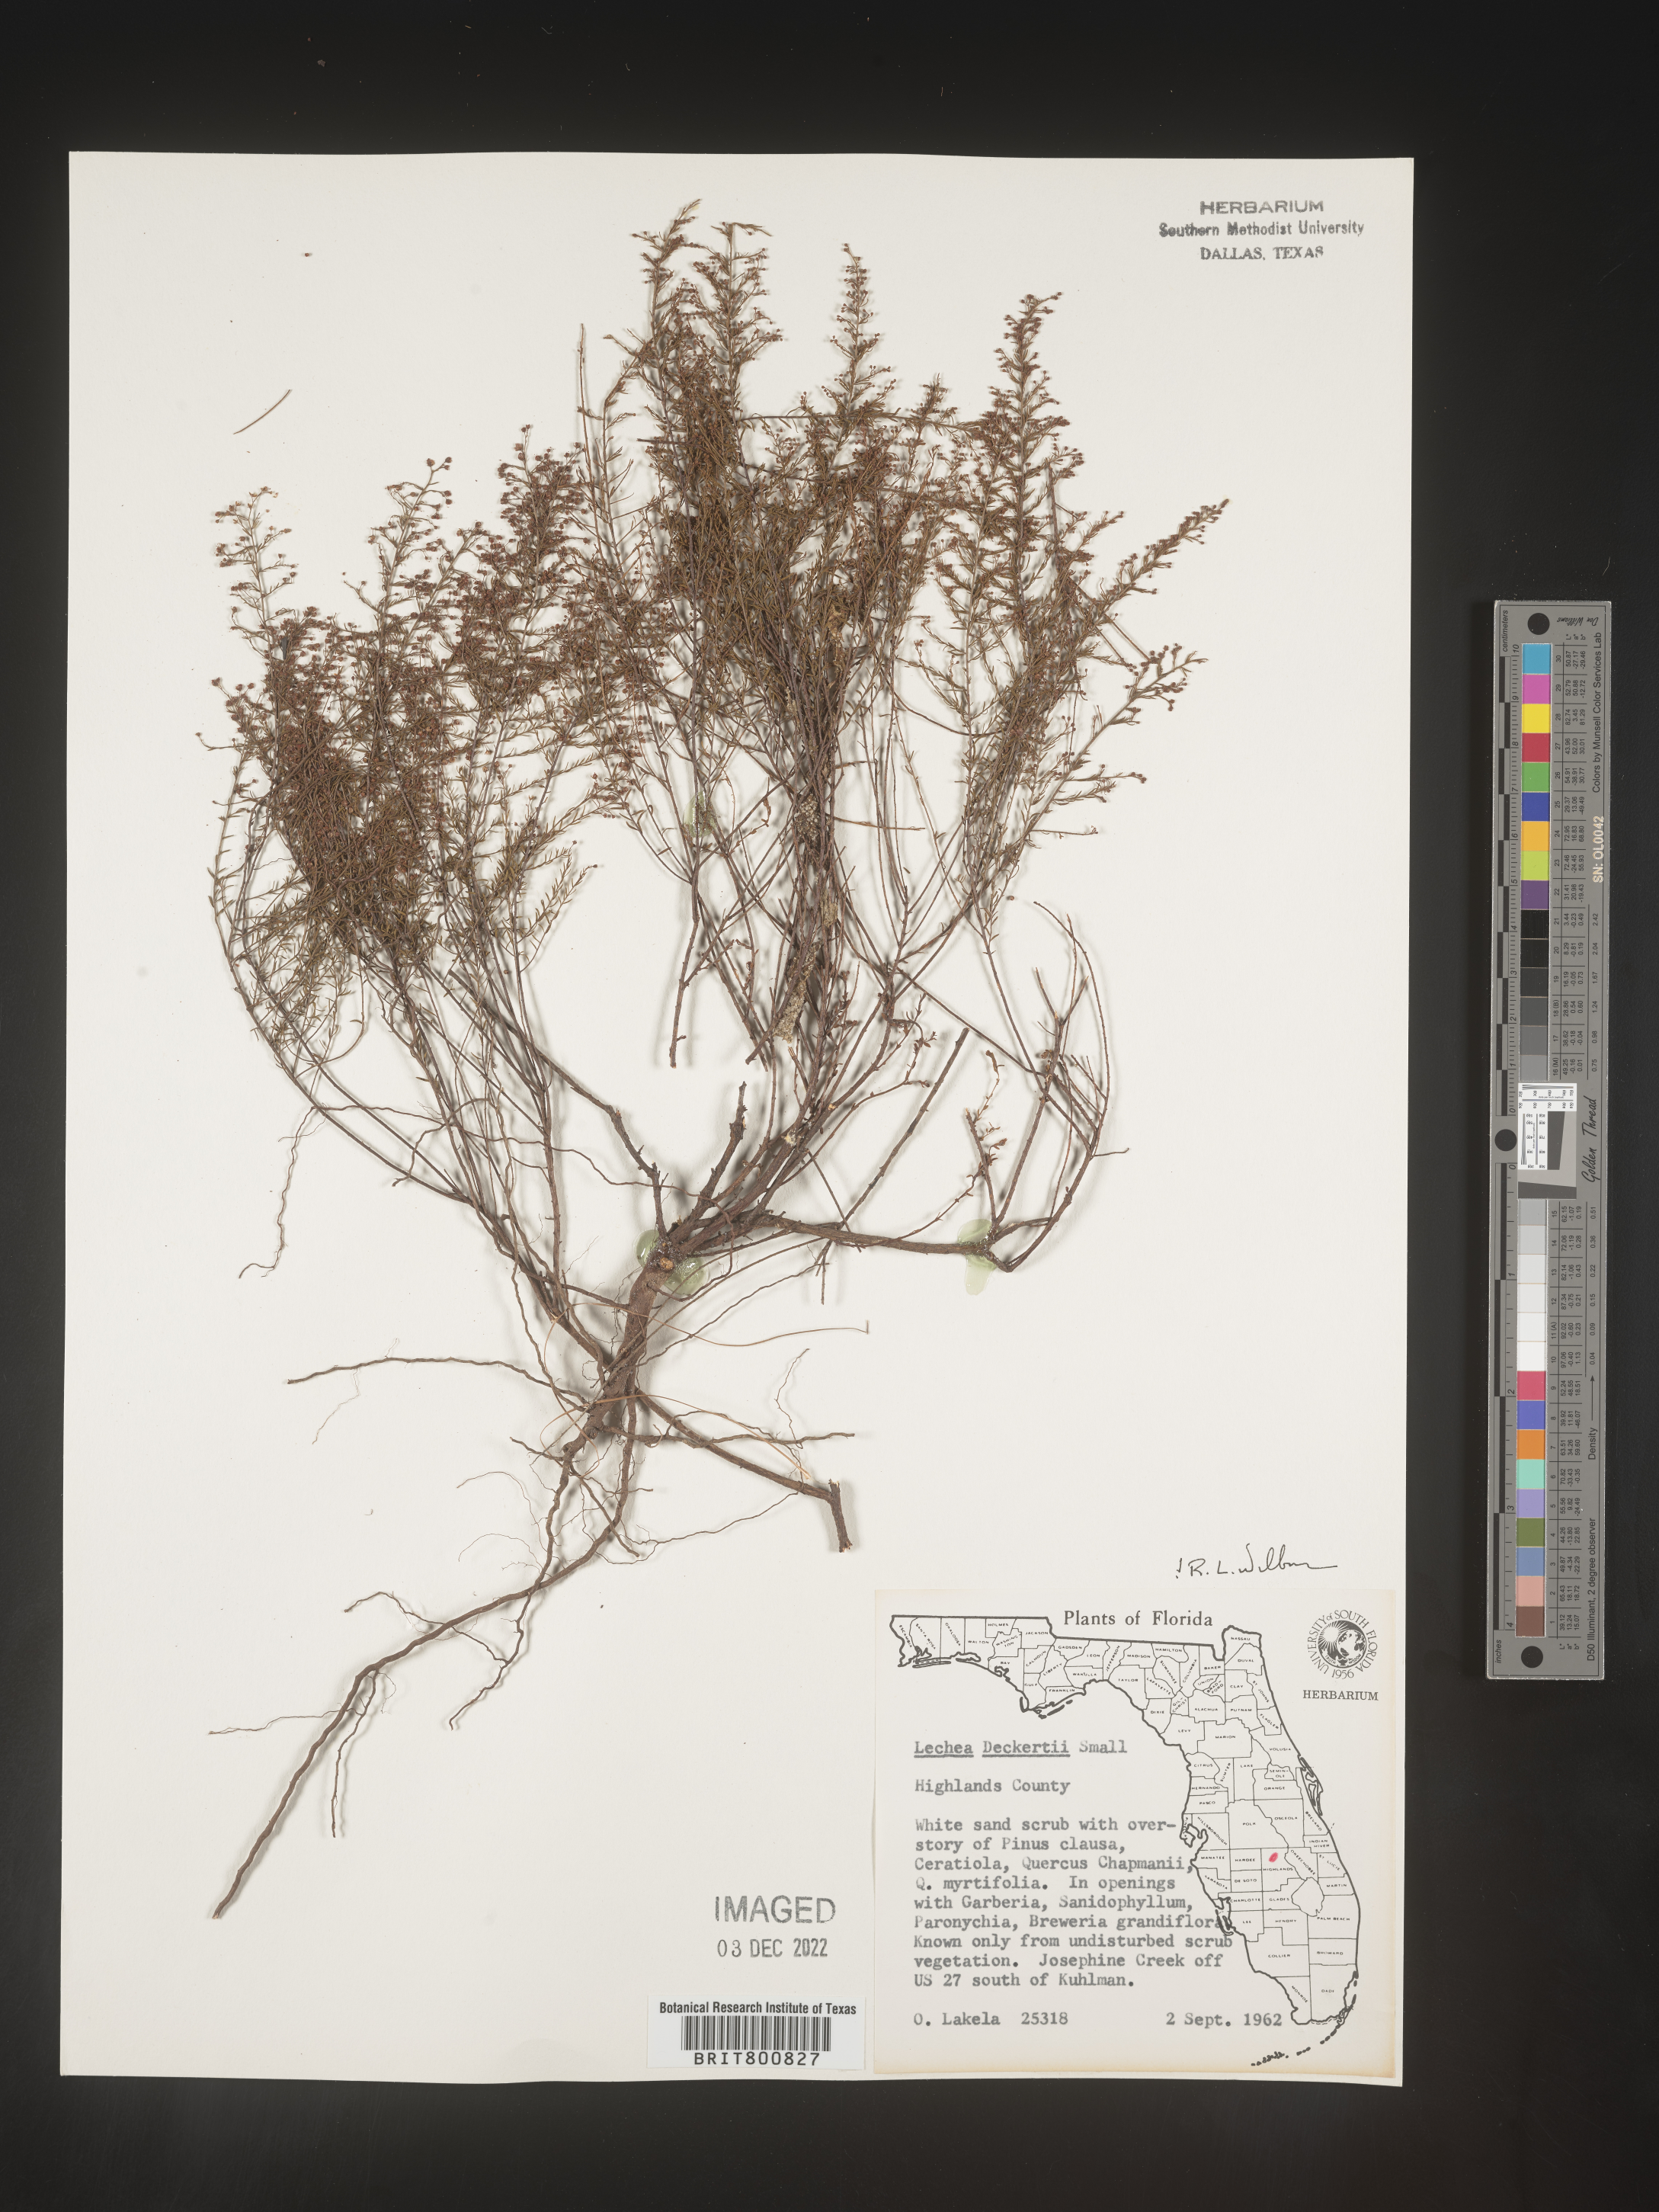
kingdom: Plantae
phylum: Tracheophyta
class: Magnoliopsida
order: Malvales
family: Cistaceae
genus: Lechea
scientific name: Lechea
